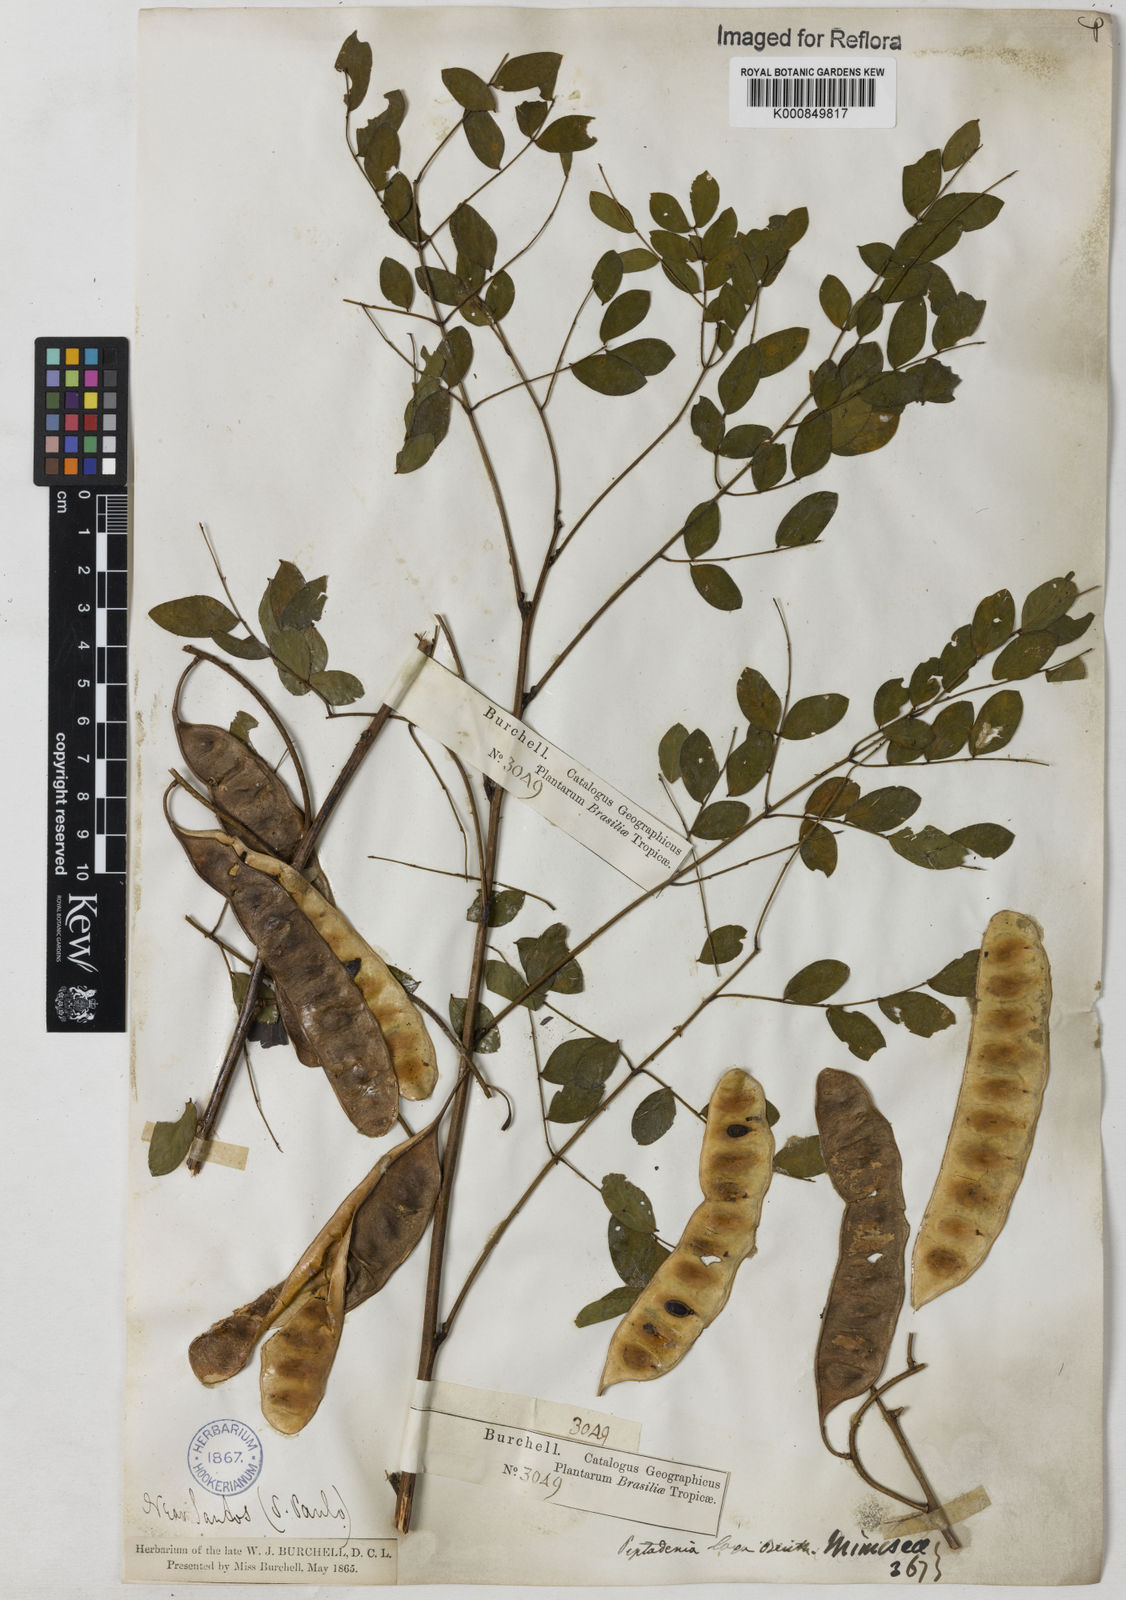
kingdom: Plantae
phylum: Tracheophyta
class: Magnoliopsida
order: Fabales
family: Fabaceae
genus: Piptadenia
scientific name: Piptadenia adiantoides
